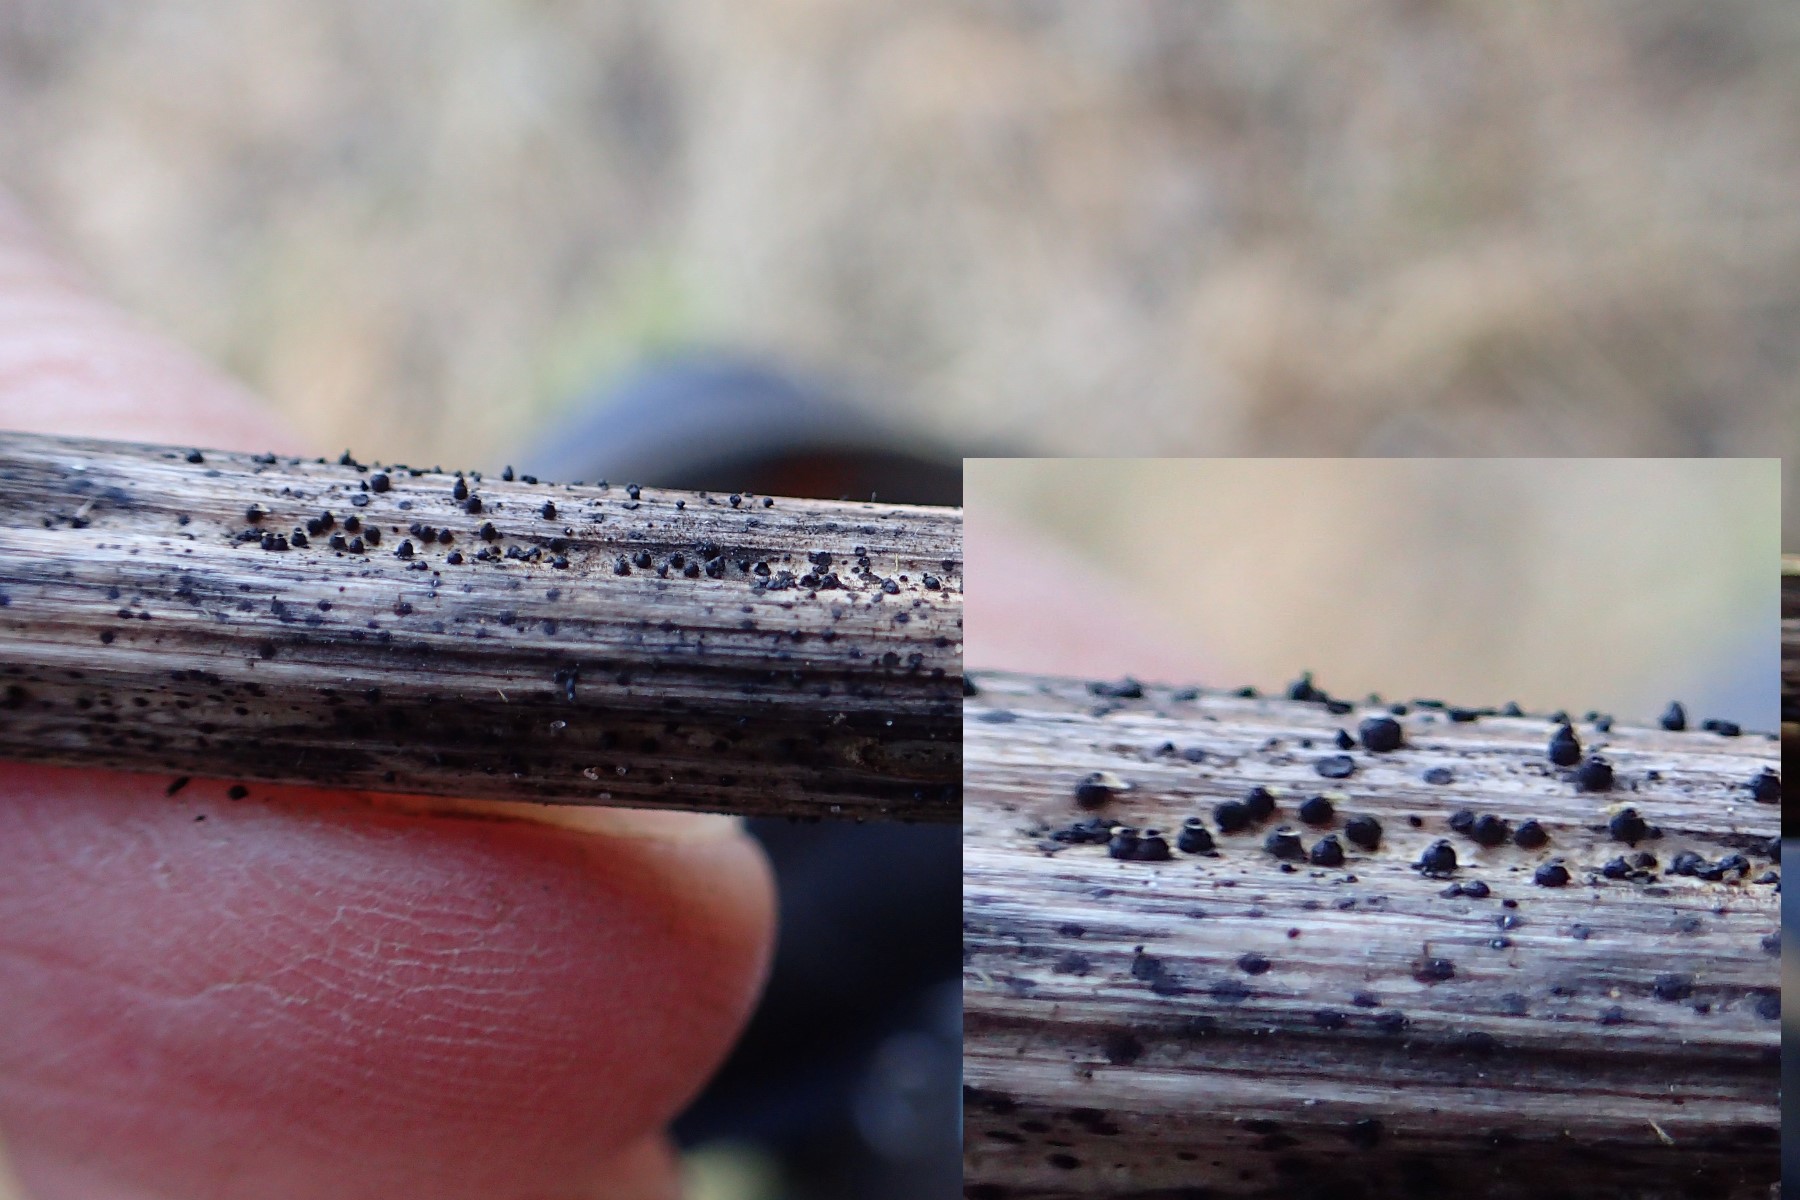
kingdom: Fungi
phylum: Ascomycota
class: Dothideomycetes
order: Pleosporales
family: Leptosphaeriaceae
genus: Leptosphaeria
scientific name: Leptosphaeria
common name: kulkegle
